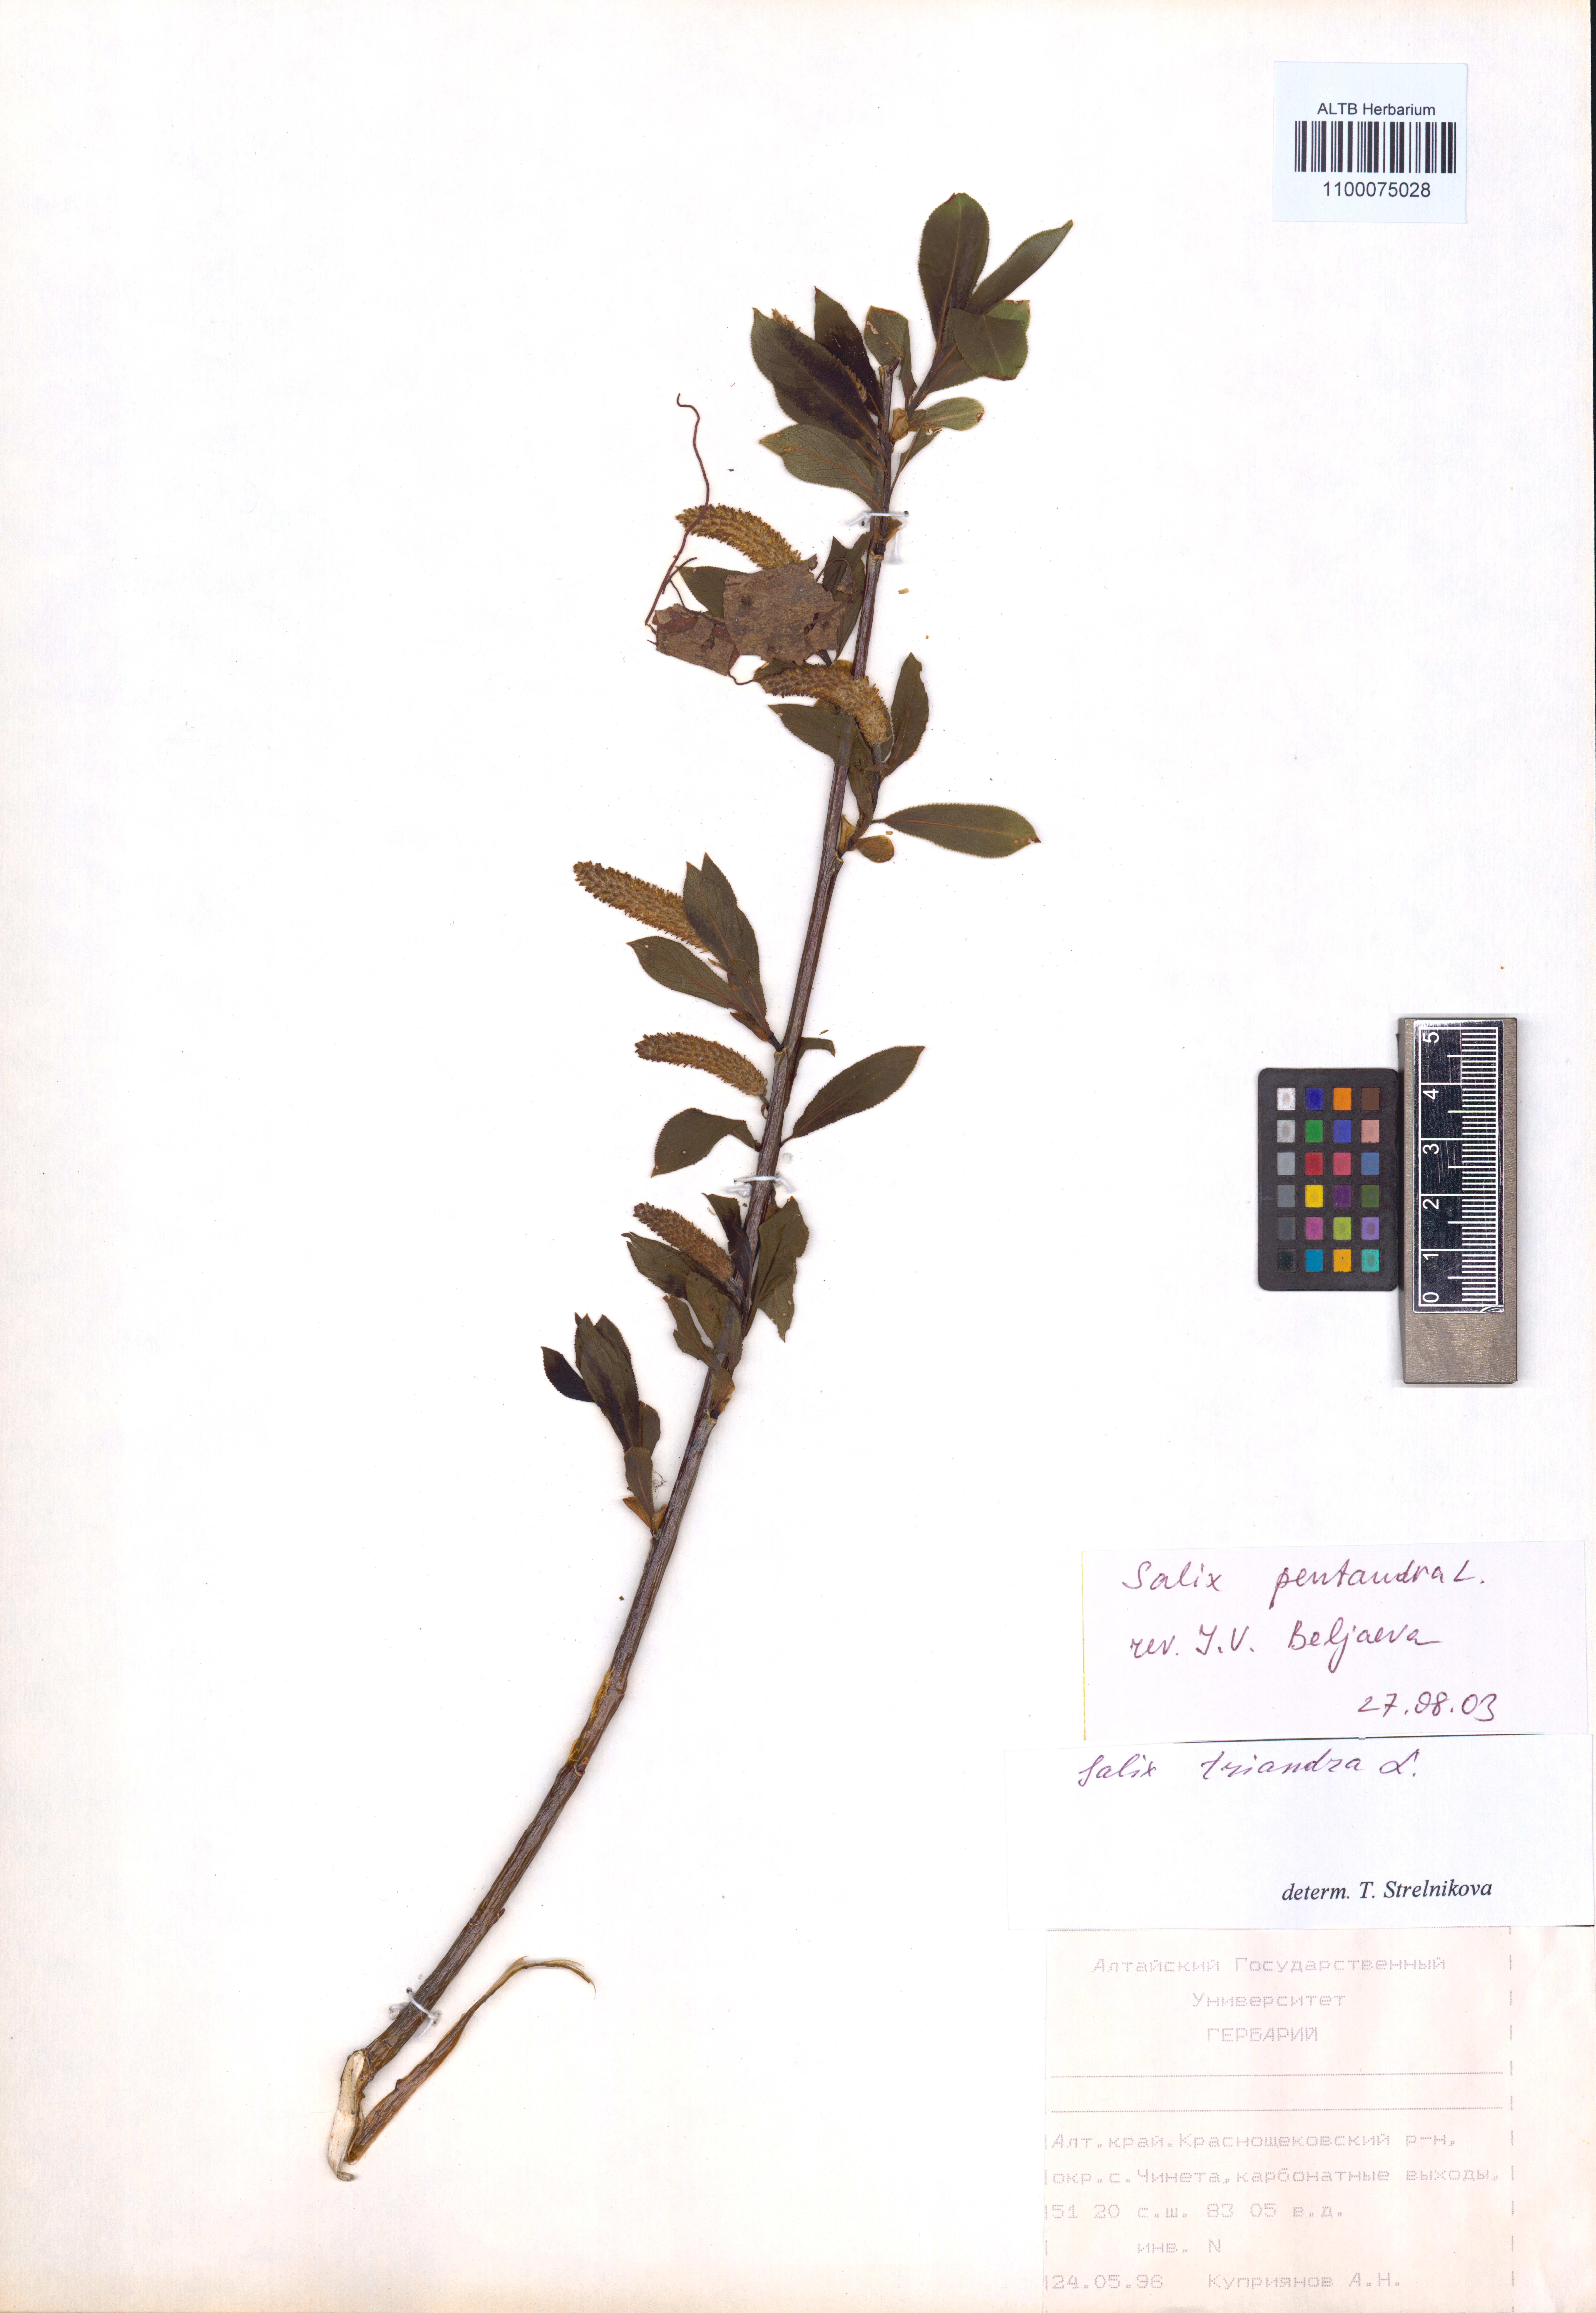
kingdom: Plantae
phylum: Tracheophyta
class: Magnoliopsida
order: Malpighiales
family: Salicaceae
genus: Salix
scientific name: Salix pentandra
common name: Bay willow
